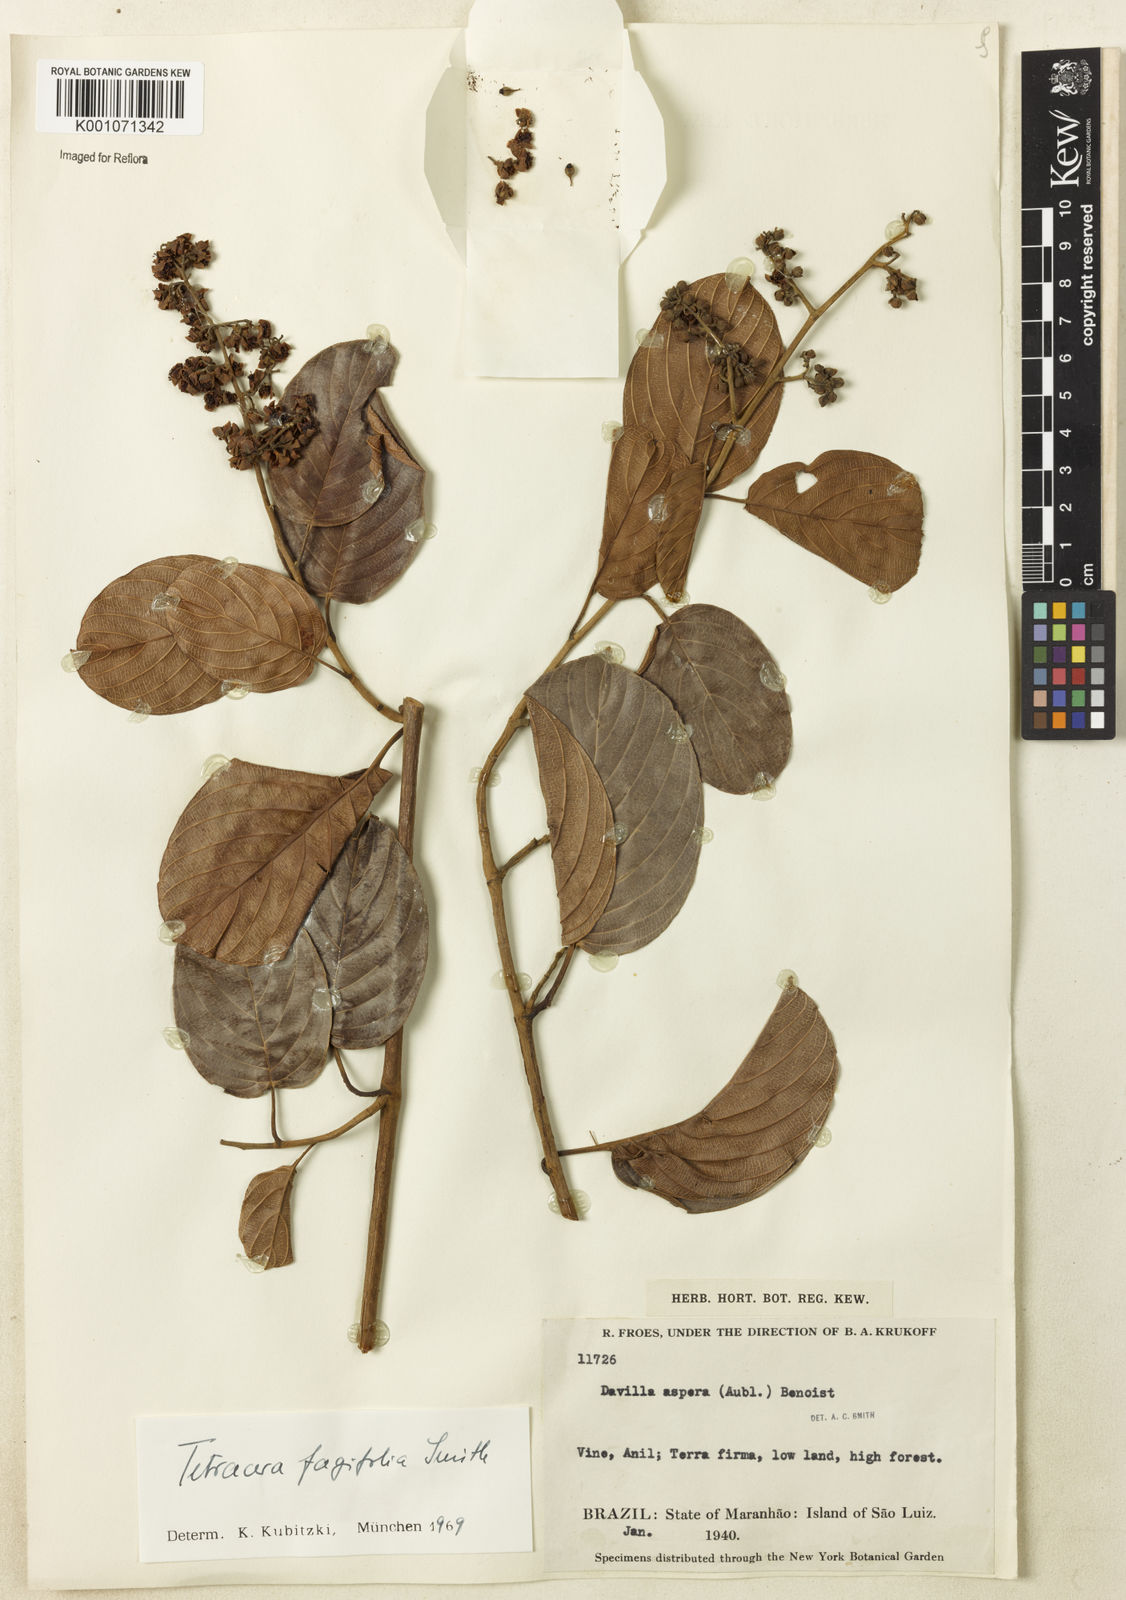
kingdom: Plantae
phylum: Tracheophyta
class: Magnoliopsida
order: Dilleniales
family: Dilleniaceae
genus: Tetracera
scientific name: Tetracera fagifolia
